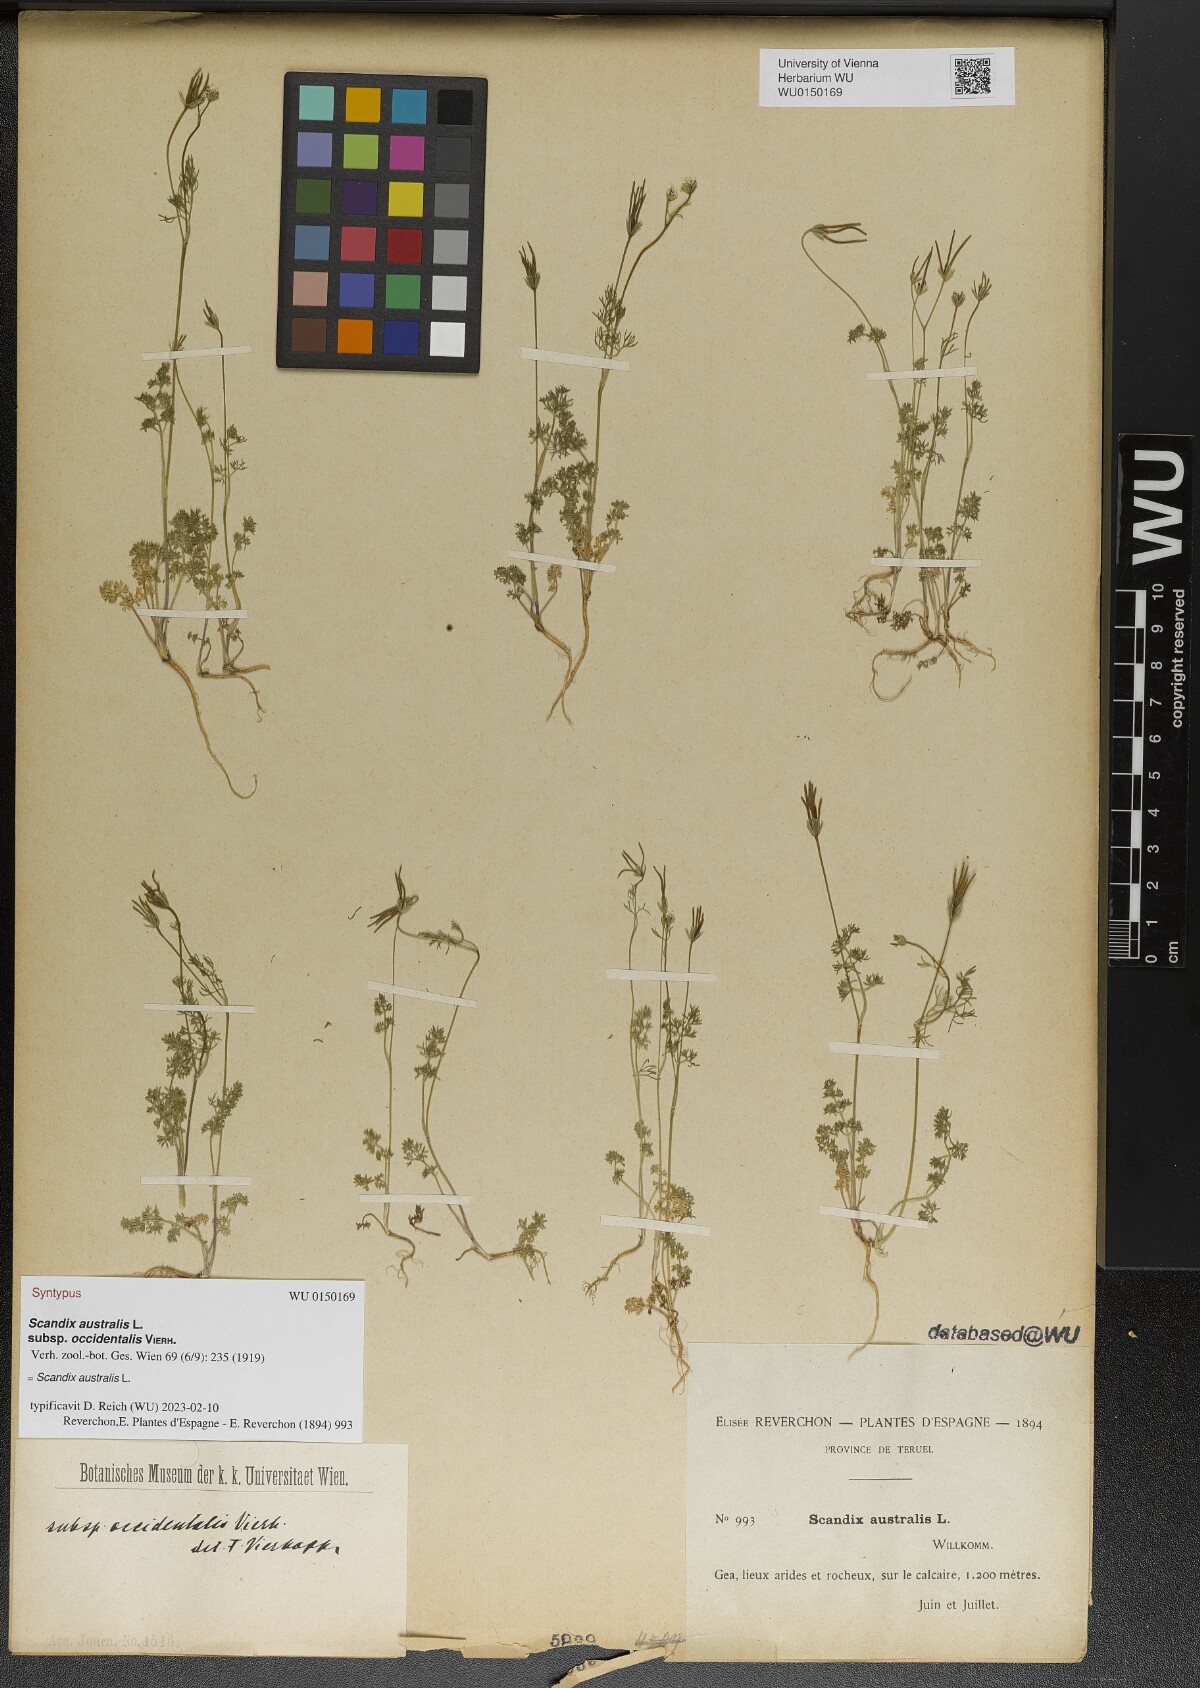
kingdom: Plantae
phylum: Tracheophyta
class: Magnoliopsida
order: Apiales
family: Apiaceae
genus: Scandix
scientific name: Scandix australis
